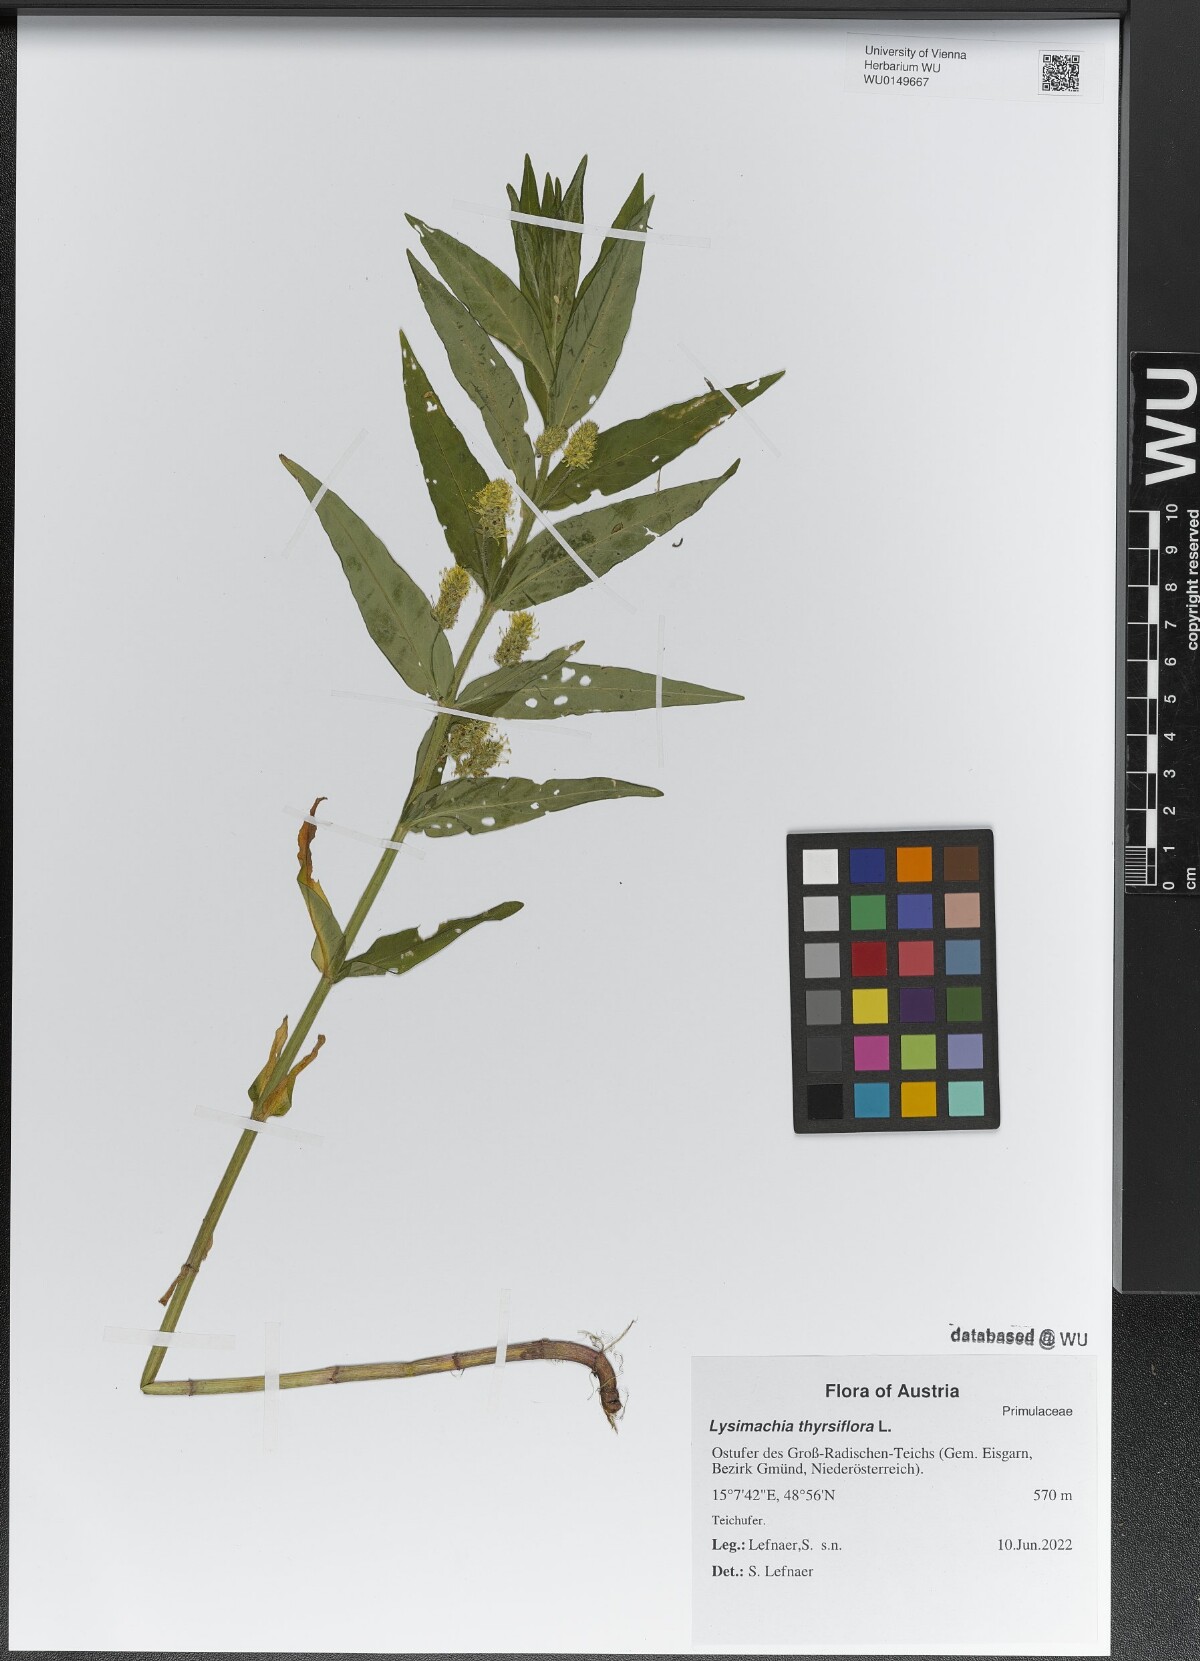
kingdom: Plantae
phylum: Tracheophyta
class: Magnoliopsida
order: Ericales
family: Primulaceae
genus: Lysimachia
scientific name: Lysimachia thyrsiflora
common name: Tufted loosestrife
